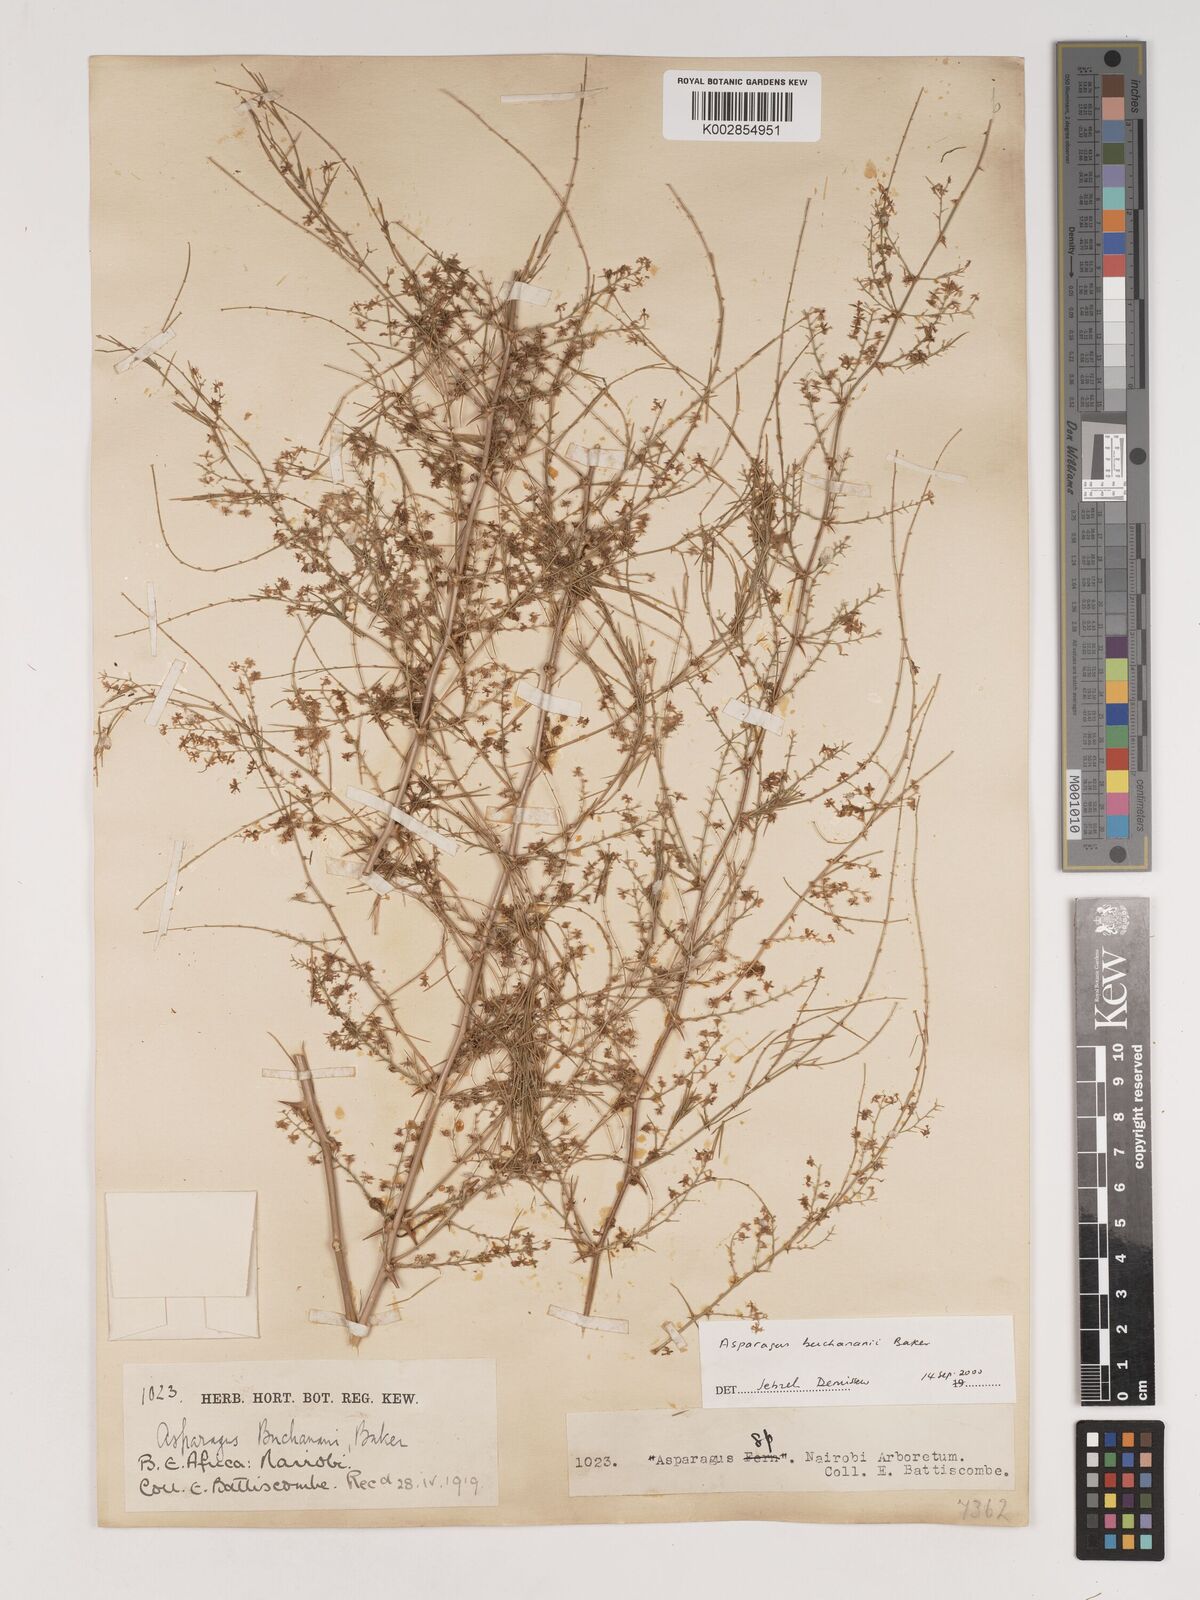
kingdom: Plantae
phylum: Tracheophyta
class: Liliopsida
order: Asparagales
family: Asparagaceae
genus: Asparagus
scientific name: Asparagus buchananii
